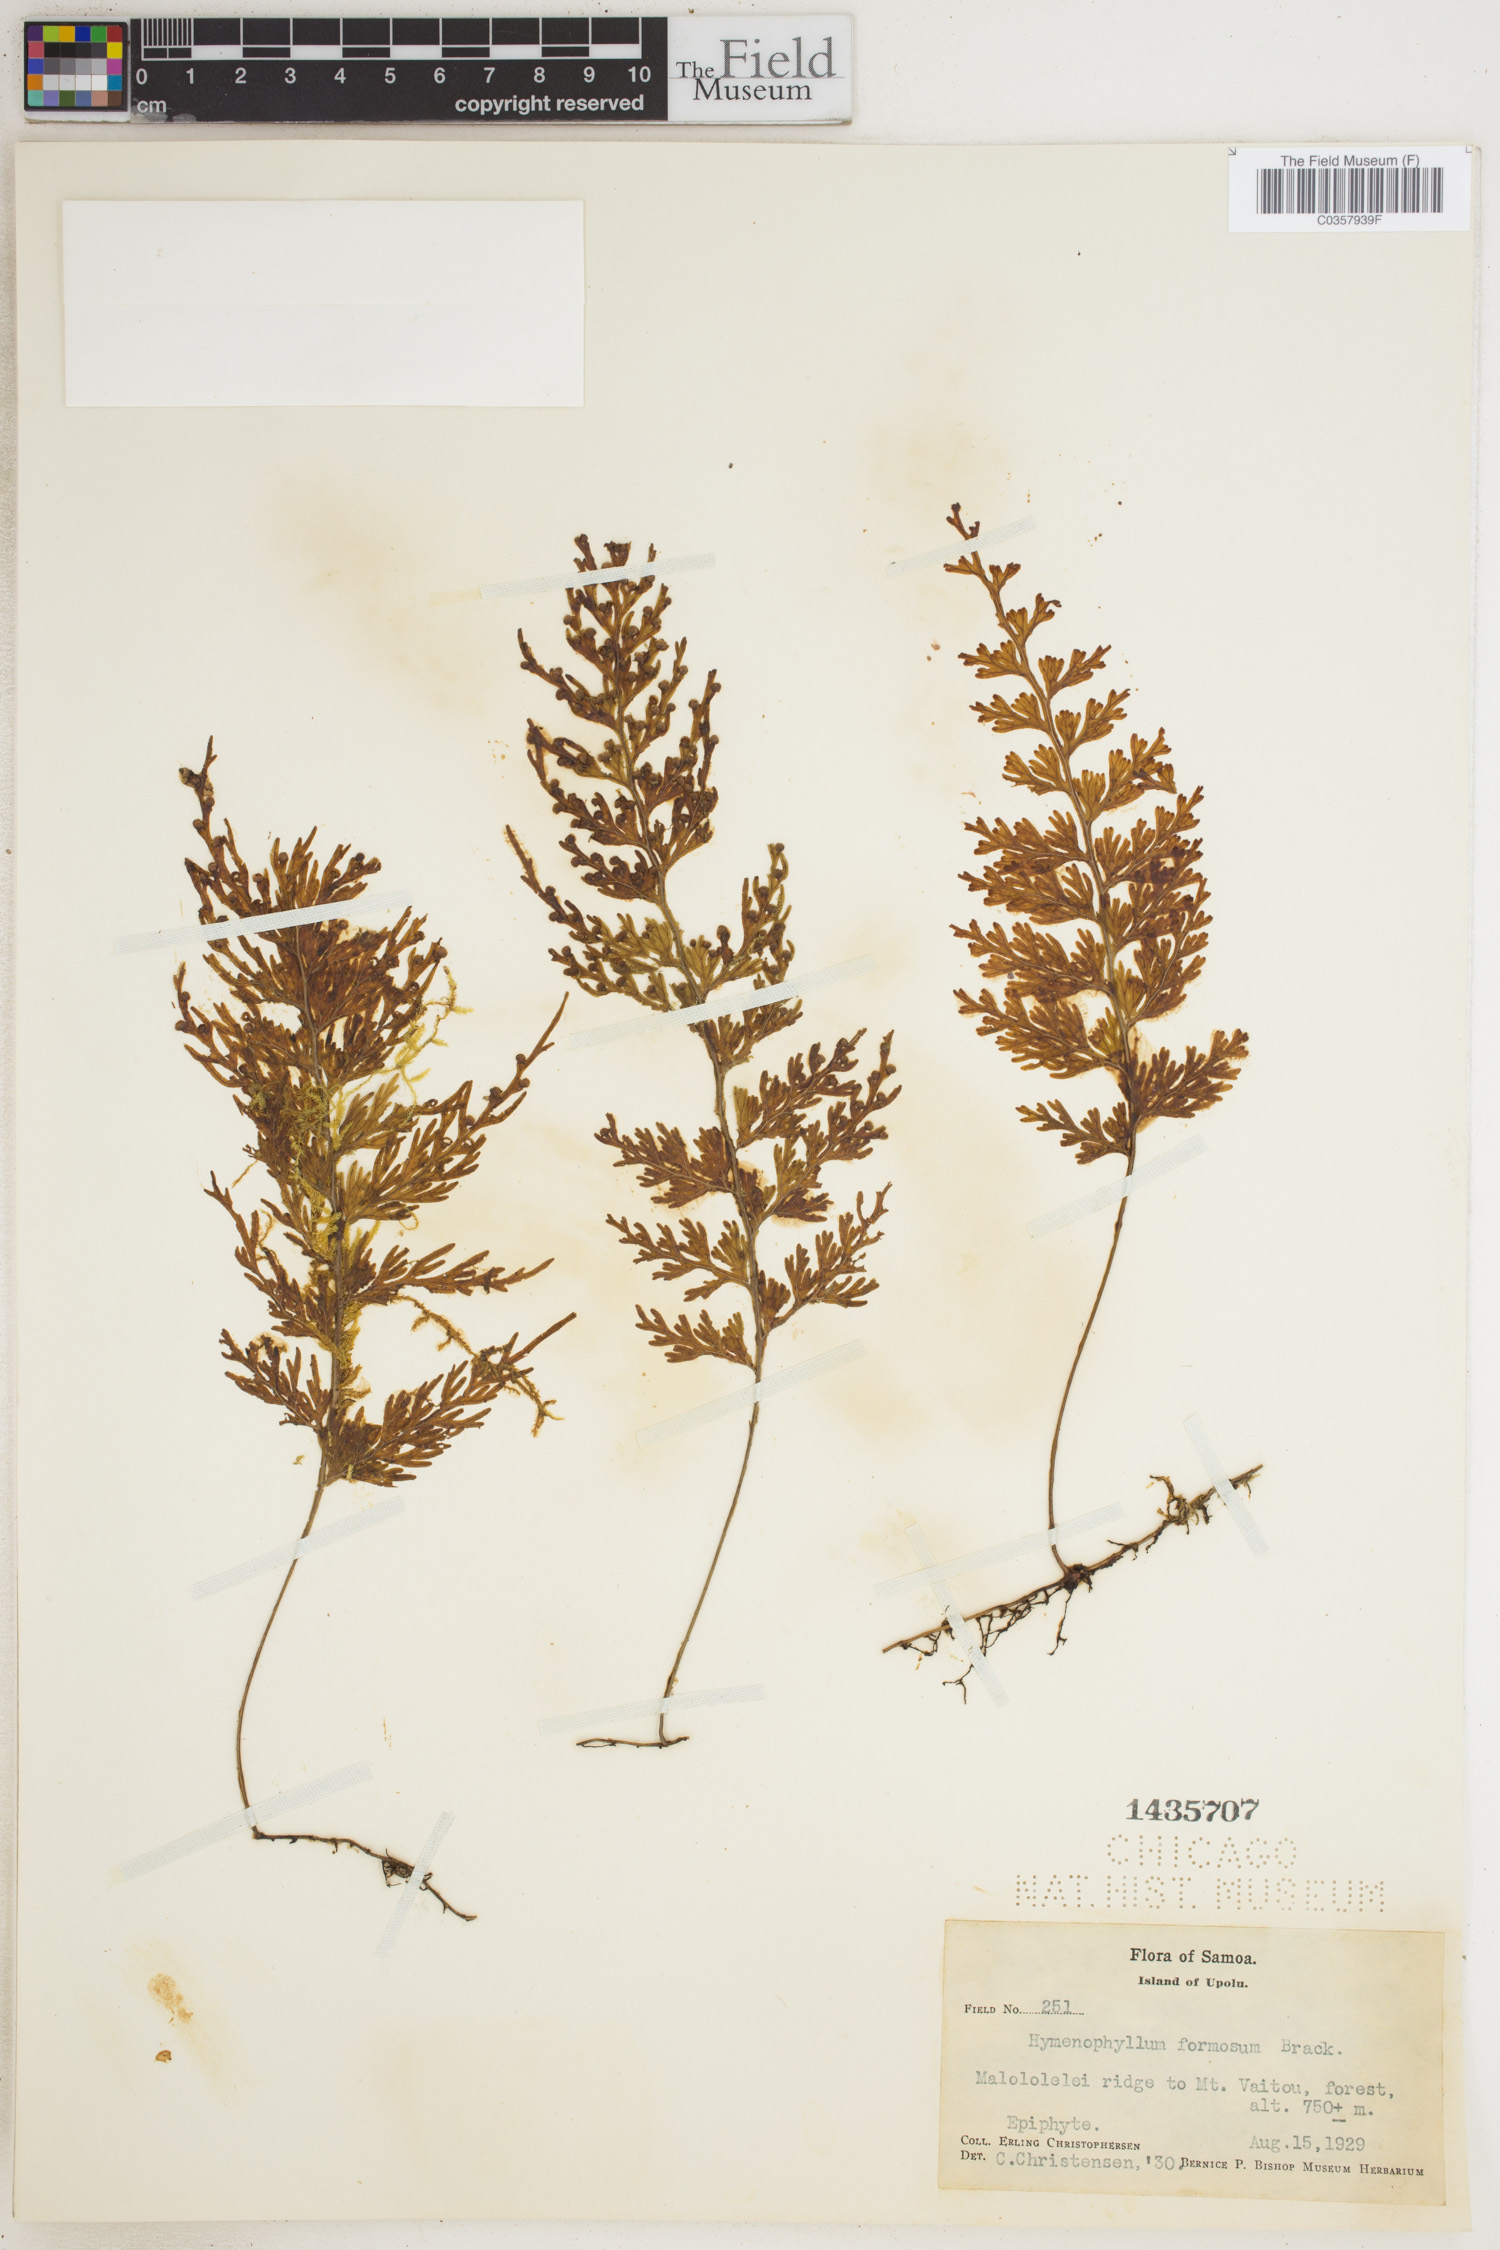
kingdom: Plantae
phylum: Tracheophyta
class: Polypodiopsida
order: Hymenophyllales
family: Hymenophyllaceae
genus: Hymenophyllum
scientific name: Hymenophyllum imbricatum
